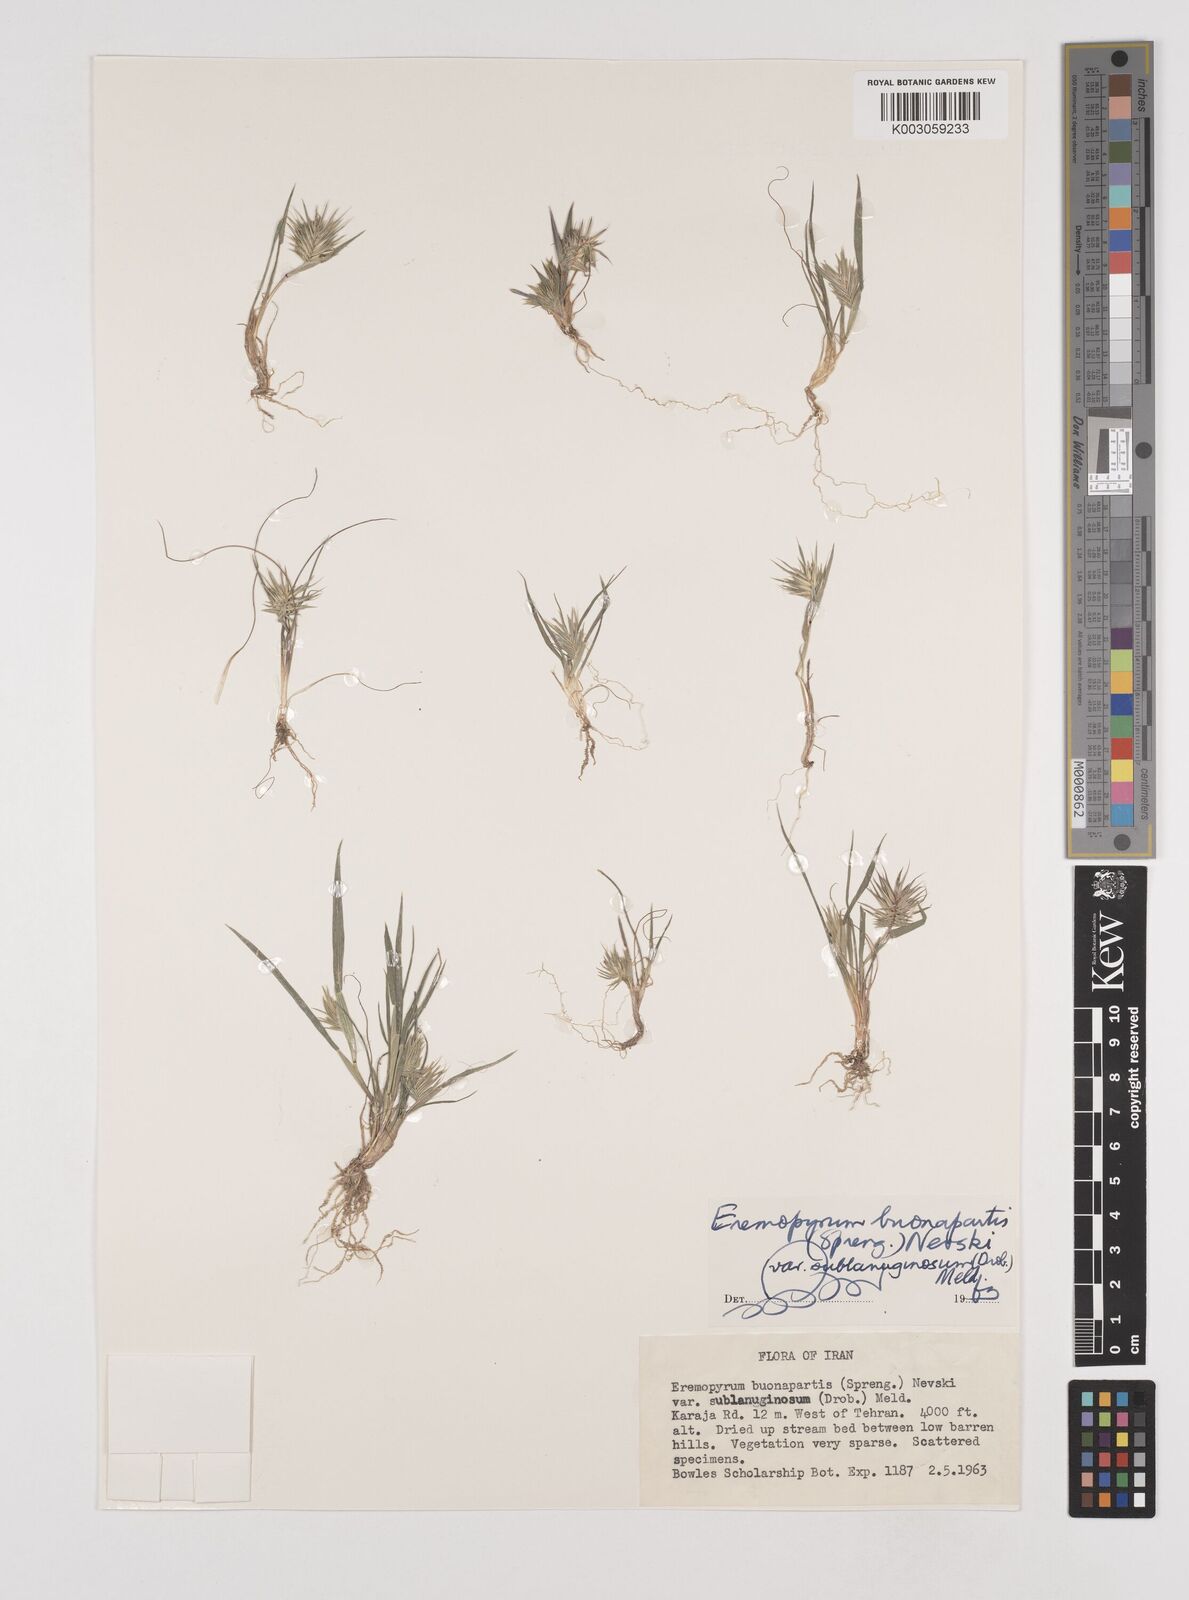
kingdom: Plantae
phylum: Tracheophyta
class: Liliopsida
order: Poales
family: Poaceae
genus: Eremopyrum
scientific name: Eremopyrum bonaepartis
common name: Tapertip false wheatgrass
